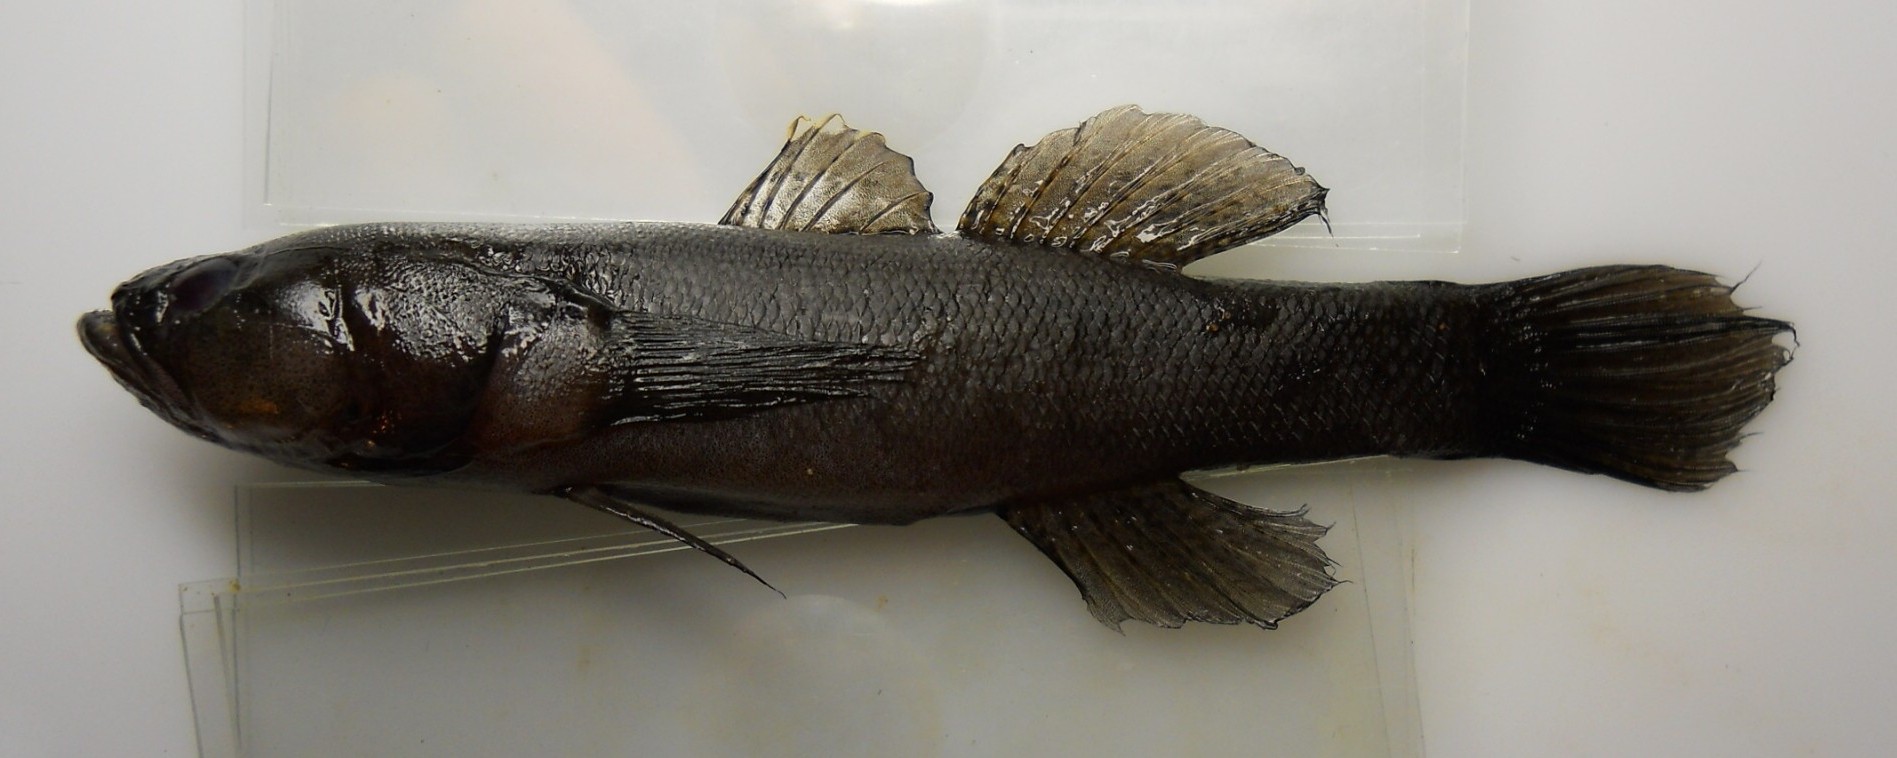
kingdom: Animalia
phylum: Chordata
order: Perciformes
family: Eleotridae
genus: Eleotris
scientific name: Eleotris melanosoma
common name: Broadhead sleeper
